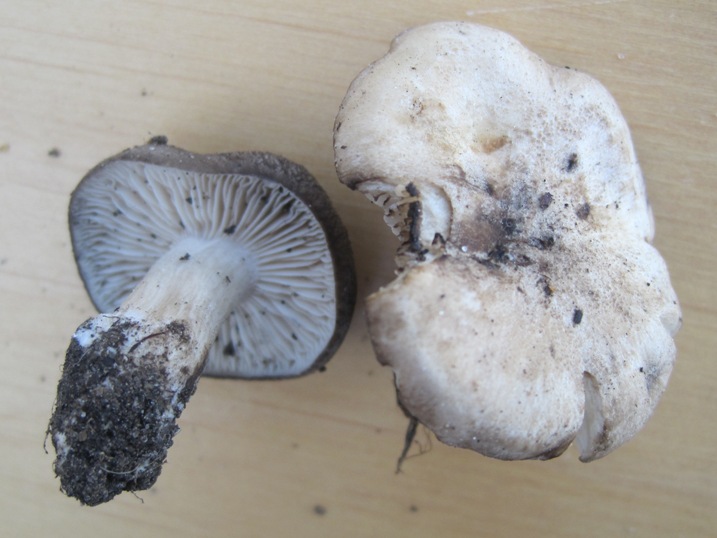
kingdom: Fungi
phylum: Basidiomycota
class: Agaricomycetes
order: Agaricales
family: Lyophyllaceae
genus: Lyophyllum
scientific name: Lyophyllum paelochroum
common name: blånende gråblad
